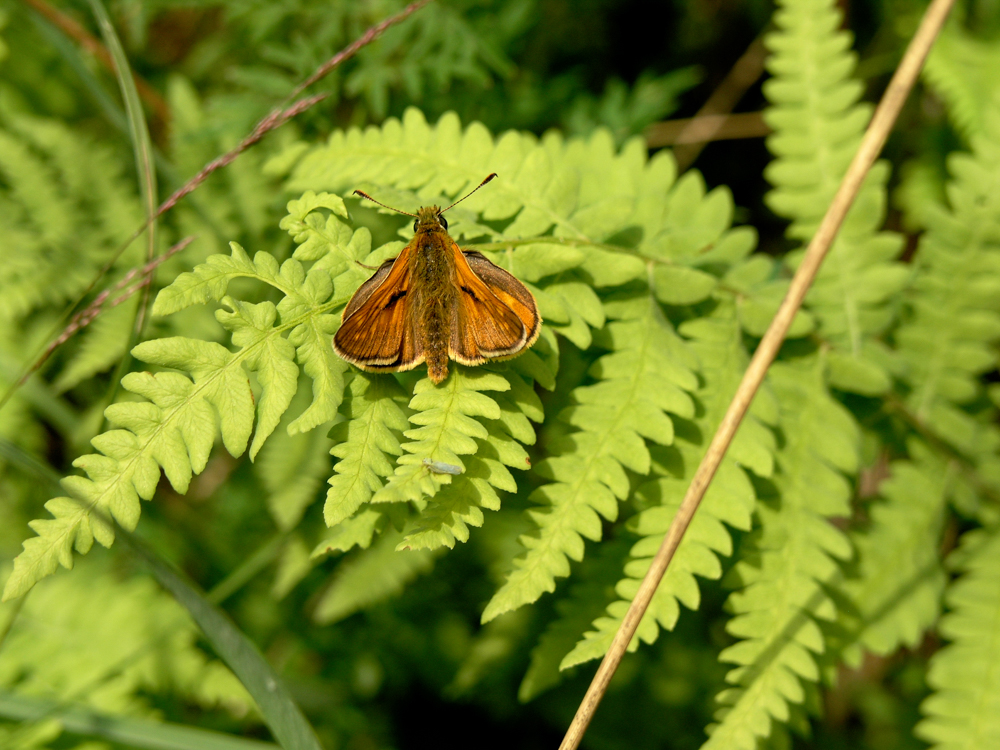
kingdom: Animalia
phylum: Arthropoda
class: Insecta
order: Lepidoptera
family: Hesperiidae
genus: Ochlodes
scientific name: Ochlodes venata
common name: Large skipper
